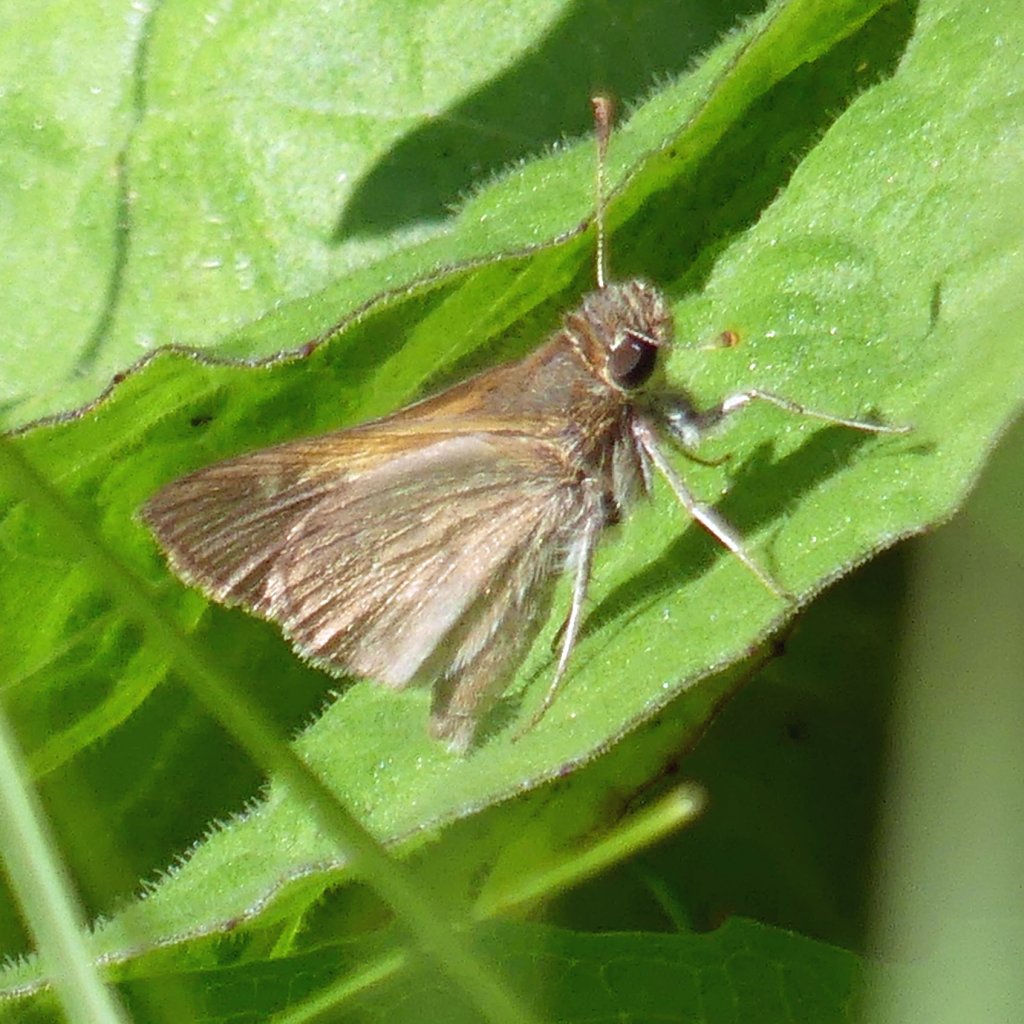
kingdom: Animalia
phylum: Arthropoda
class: Insecta
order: Lepidoptera
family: Hesperiidae
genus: Polites
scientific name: Polites themistocles
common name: Tawny-edged Skipper
